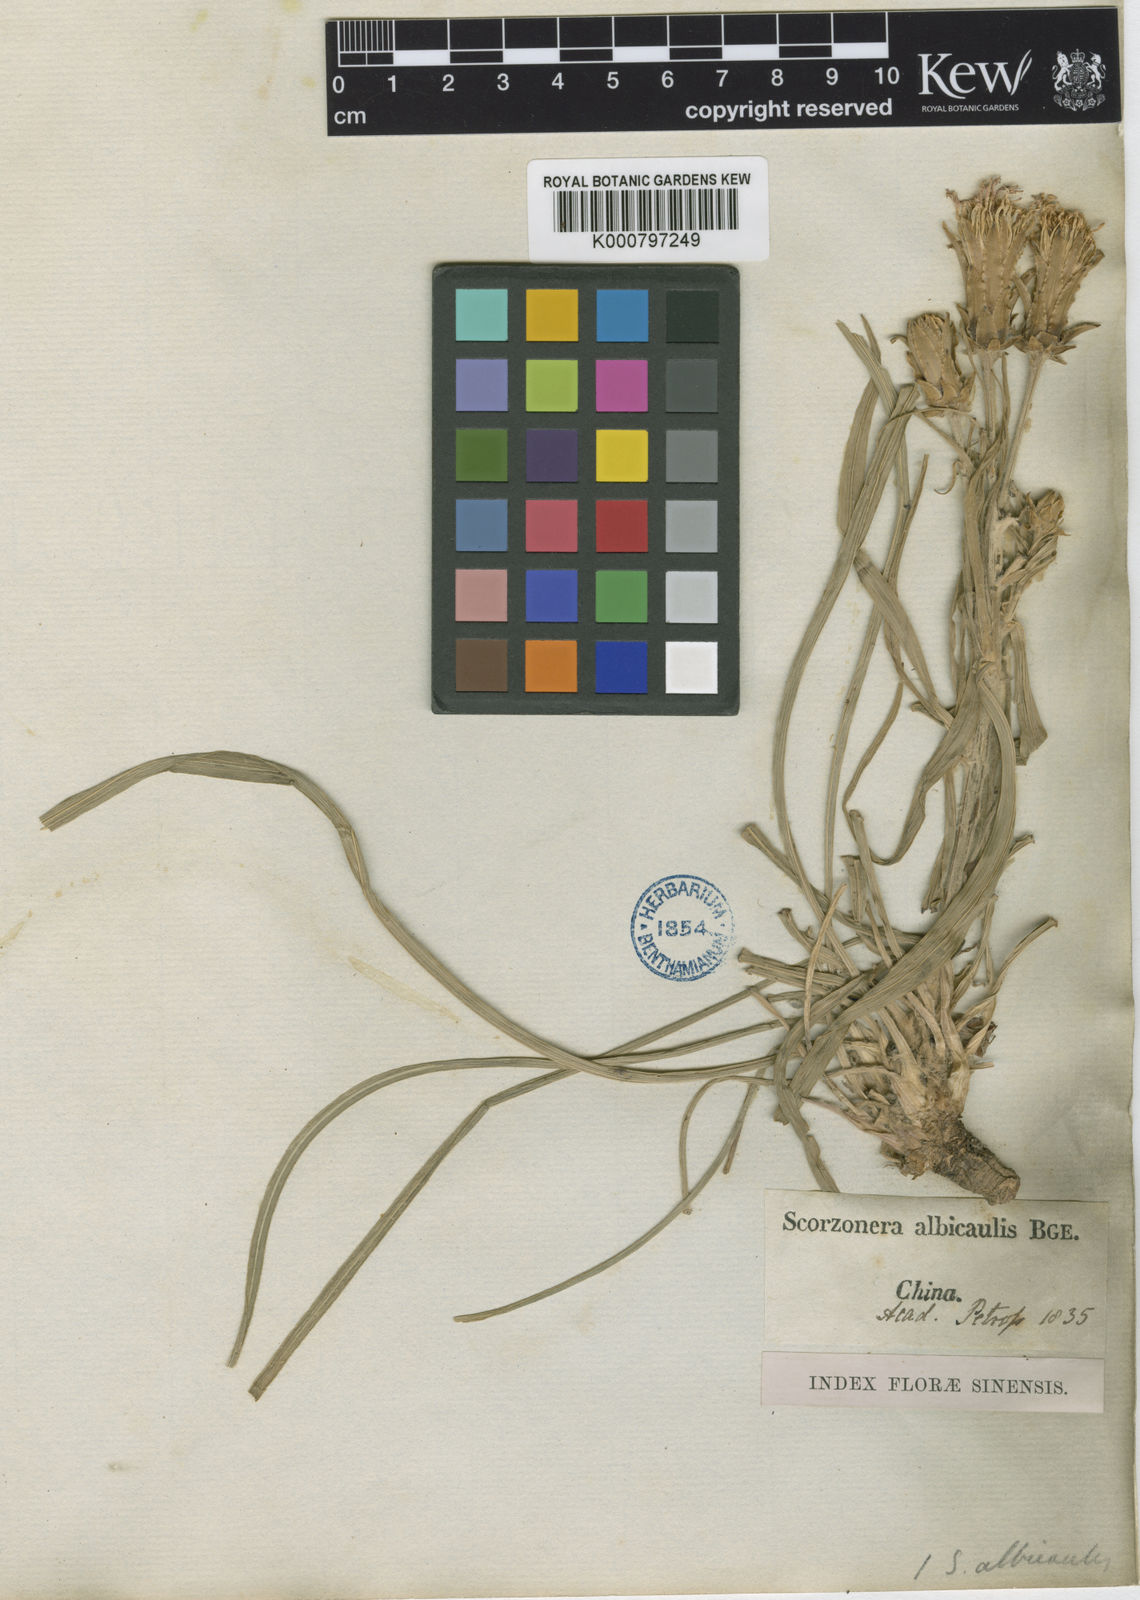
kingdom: Plantae
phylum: Tracheophyta
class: Magnoliopsida
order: Asterales
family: Asteraceae
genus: Scorzonera
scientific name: Scorzonera albicaulis
